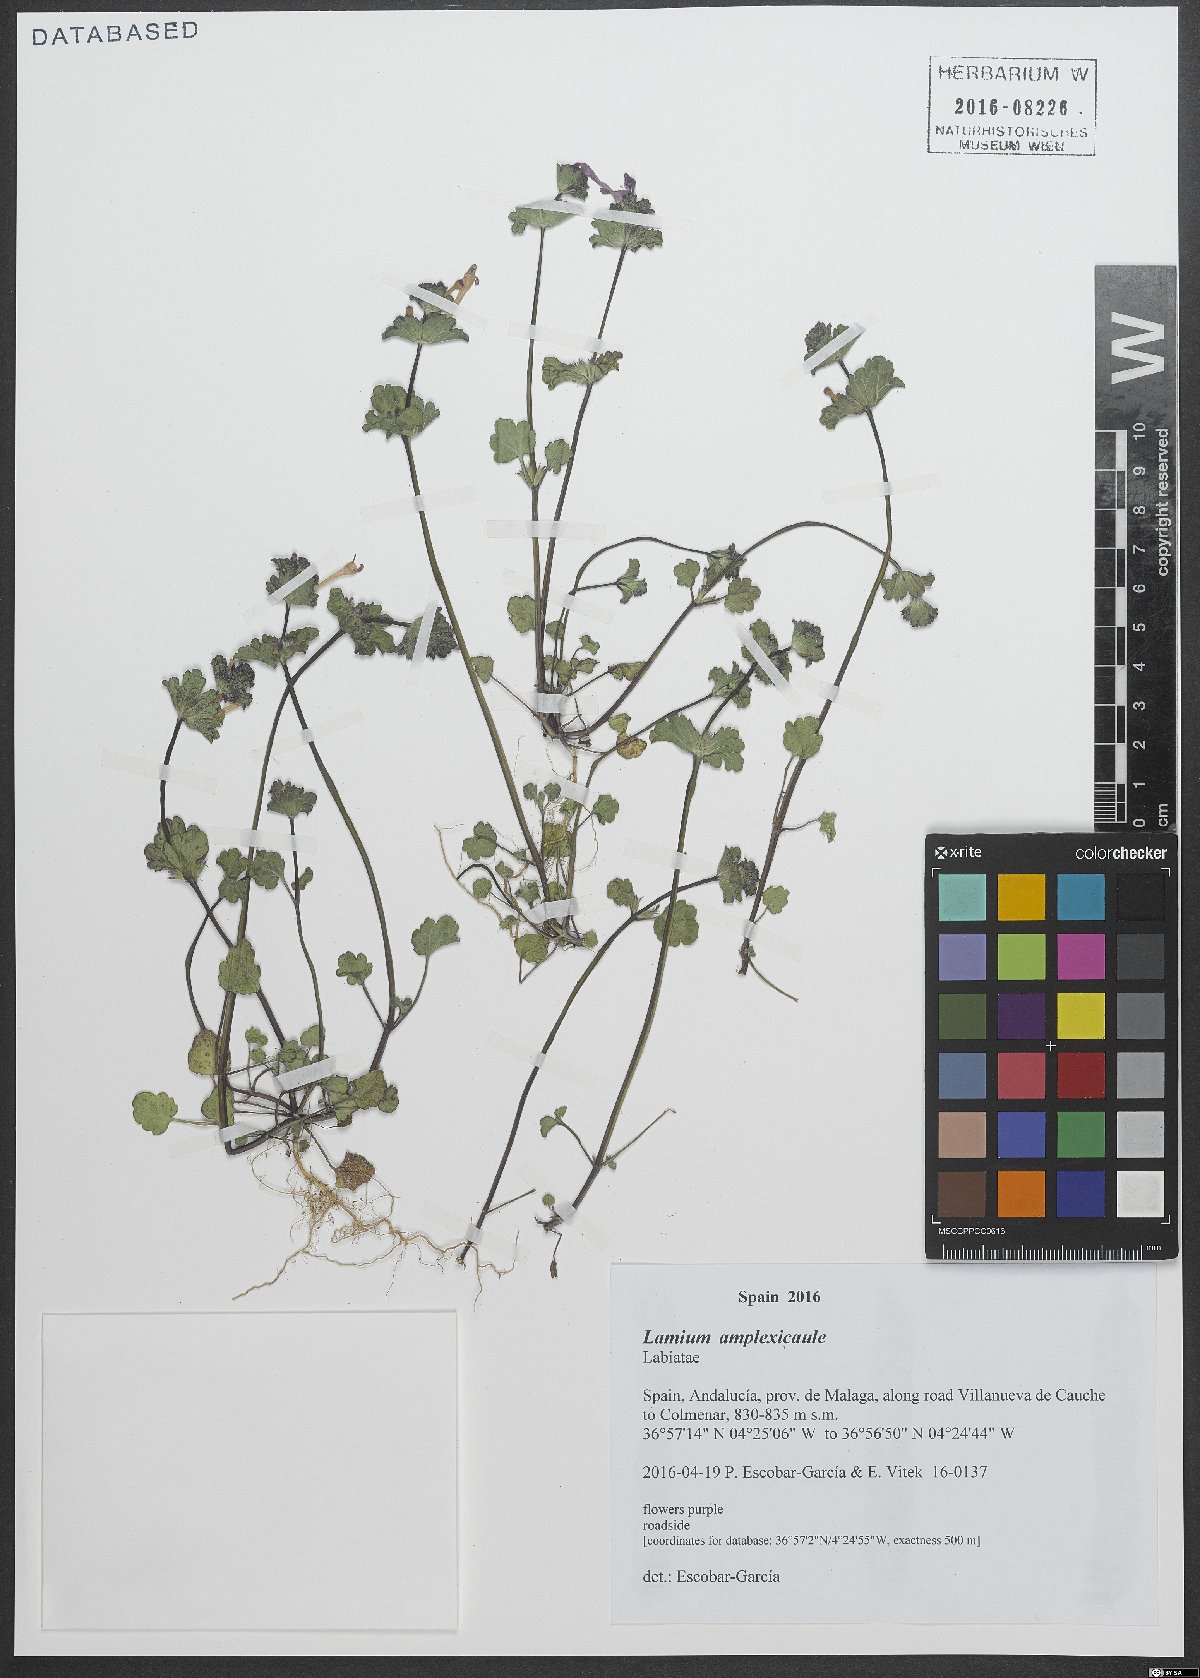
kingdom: Plantae
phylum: Tracheophyta
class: Magnoliopsida
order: Lamiales
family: Lamiaceae
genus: Lamium
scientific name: Lamium amplexicaule
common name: Henbit dead-nettle
